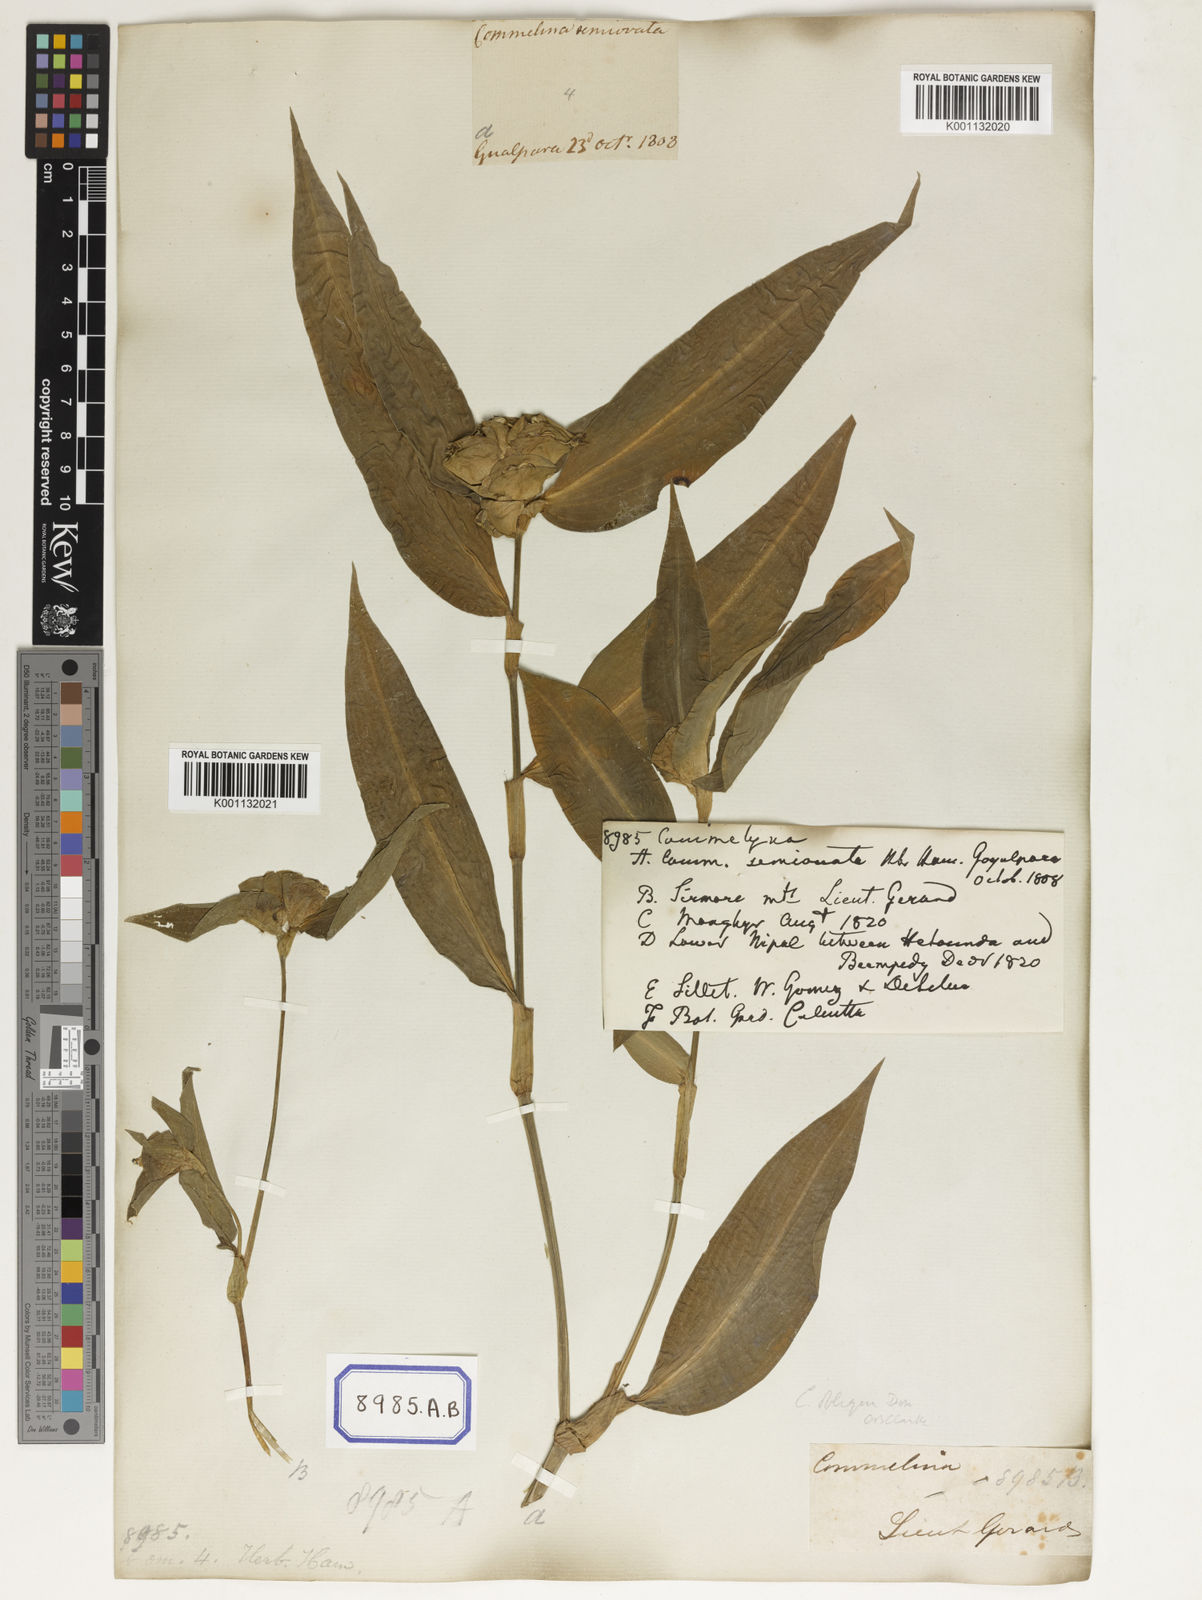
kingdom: Plantae
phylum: Tracheophyta
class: Liliopsida
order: Commelinales
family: Commelinaceae
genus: Commelina
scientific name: Commelina
